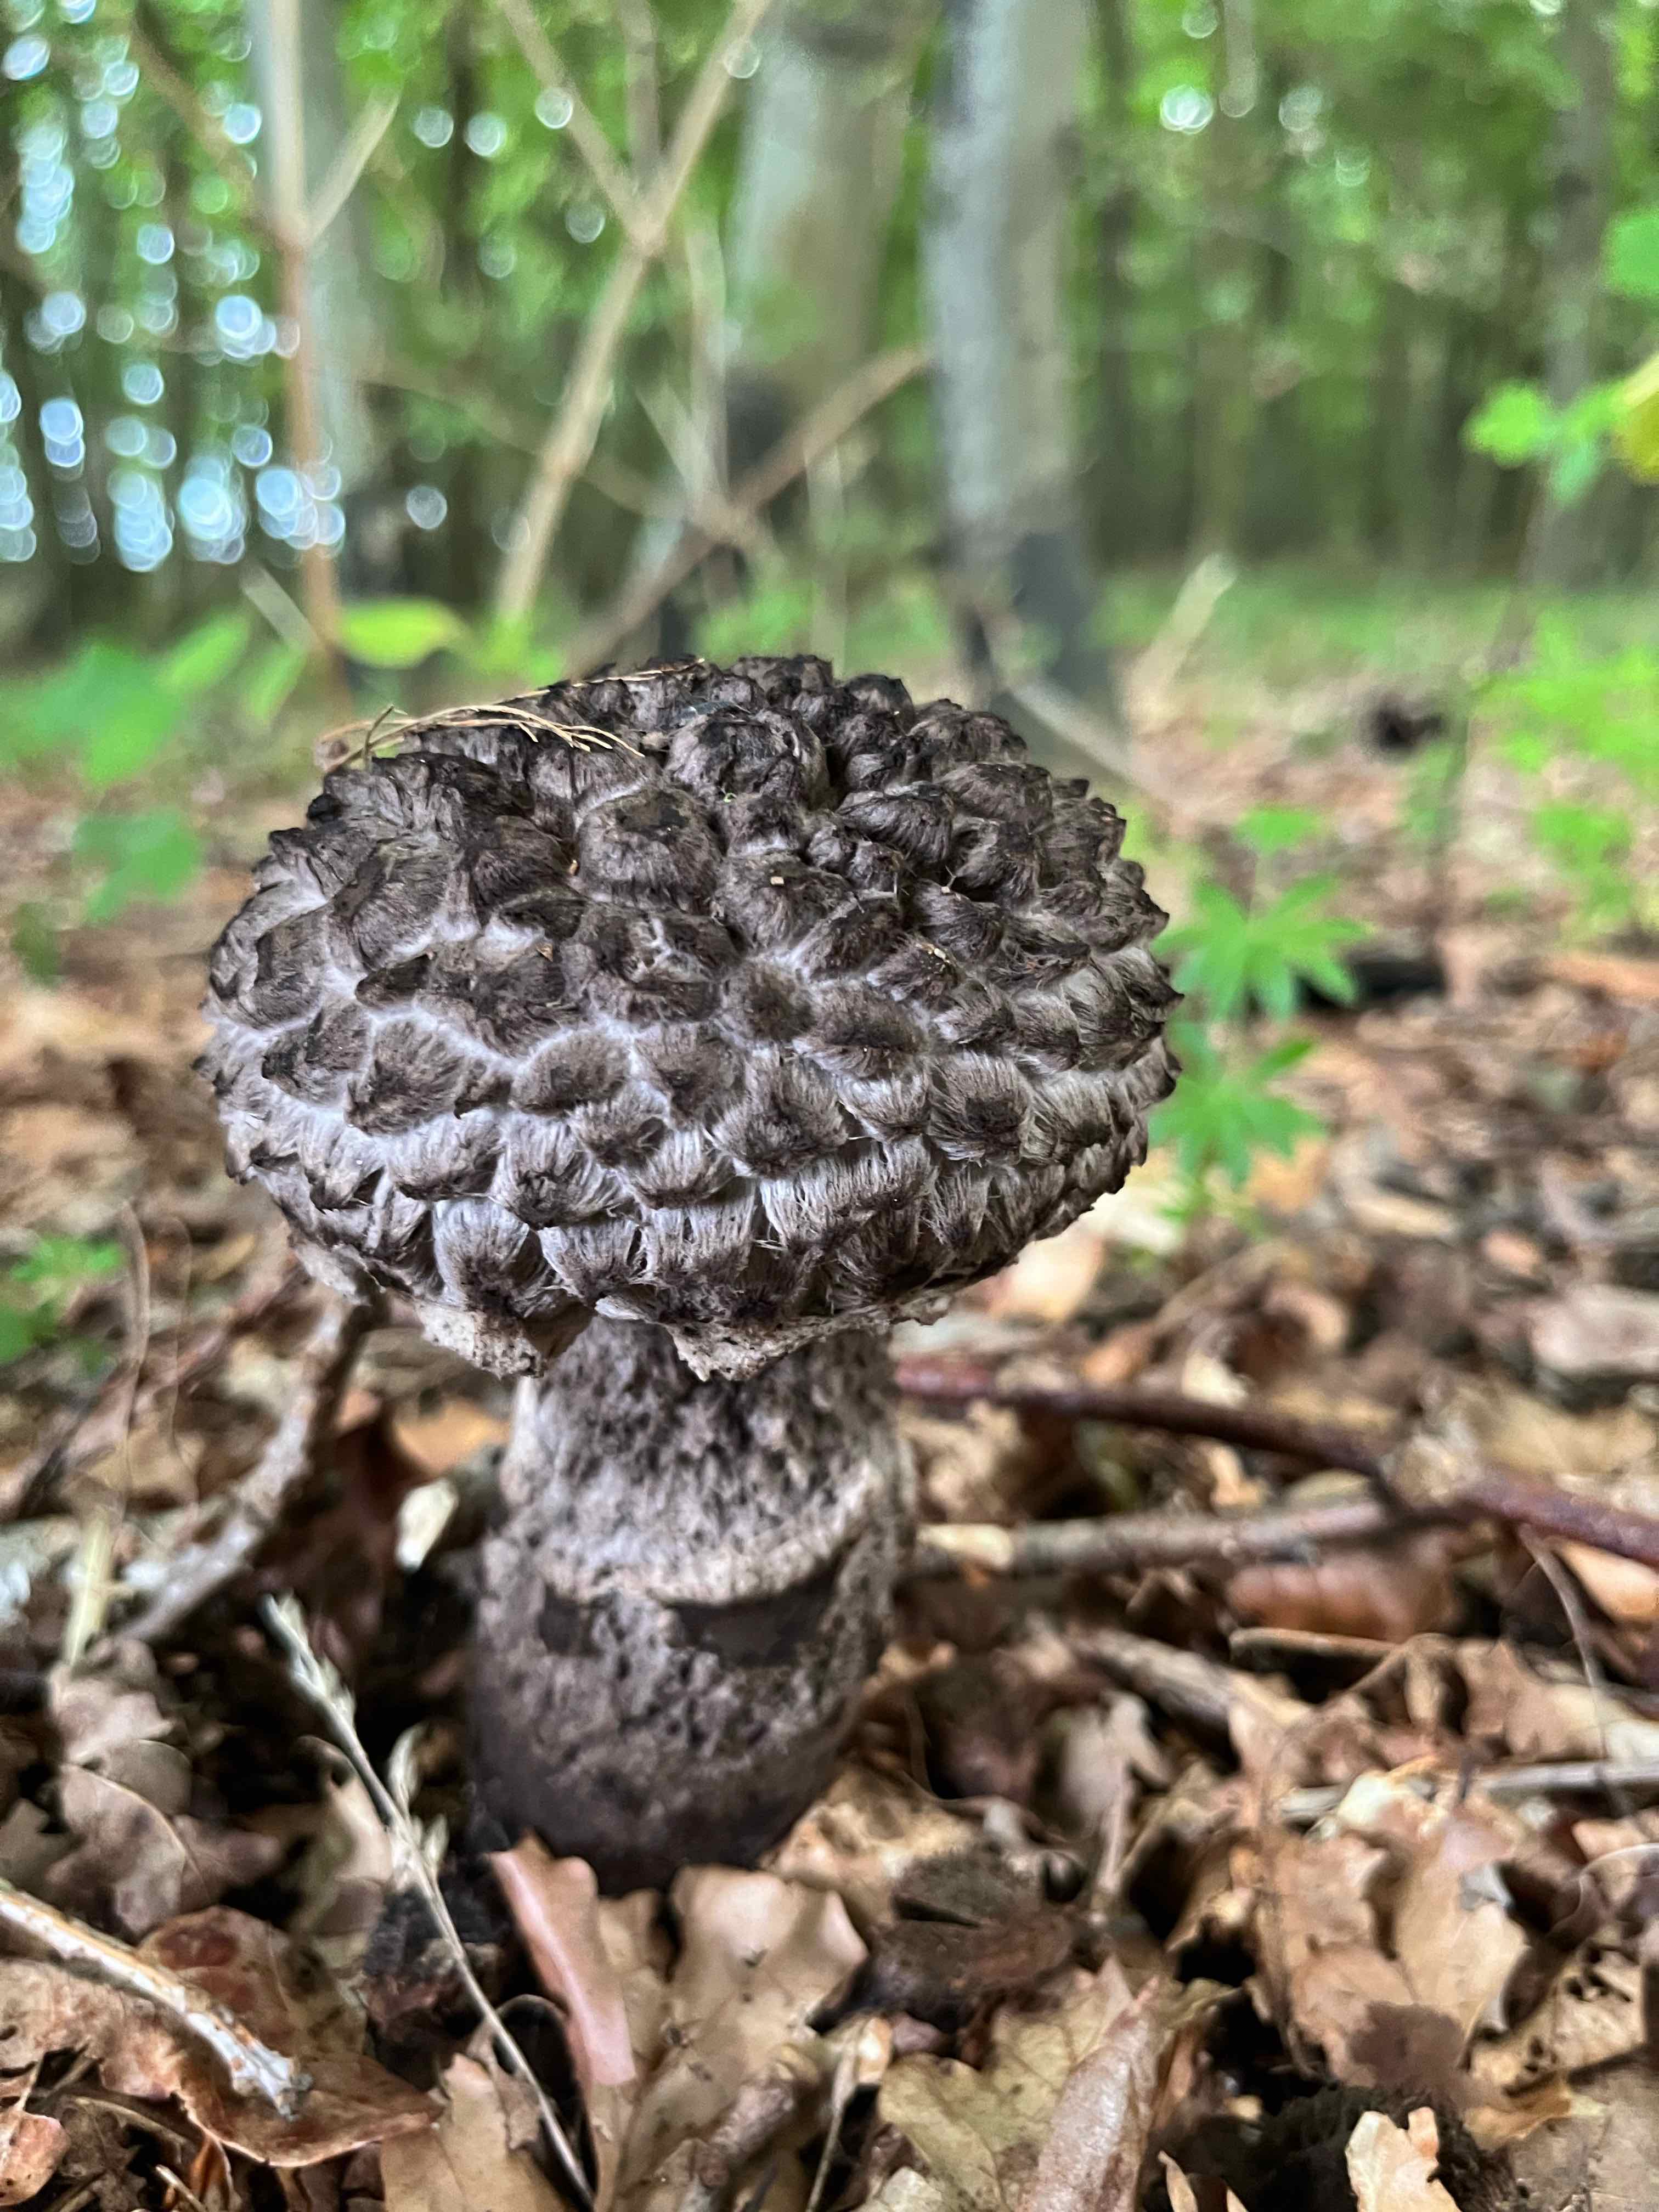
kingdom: Fungi
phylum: Basidiomycota
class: Agaricomycetes
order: Boletales
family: Boletaceae
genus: Strobilomyces
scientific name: Strobilomyces strobilaceus
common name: koglerørhat
